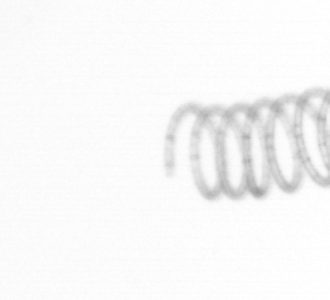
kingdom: Chromista
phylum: Ochrophyta
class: Bacillariophyceae
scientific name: Bacillariophyceae
